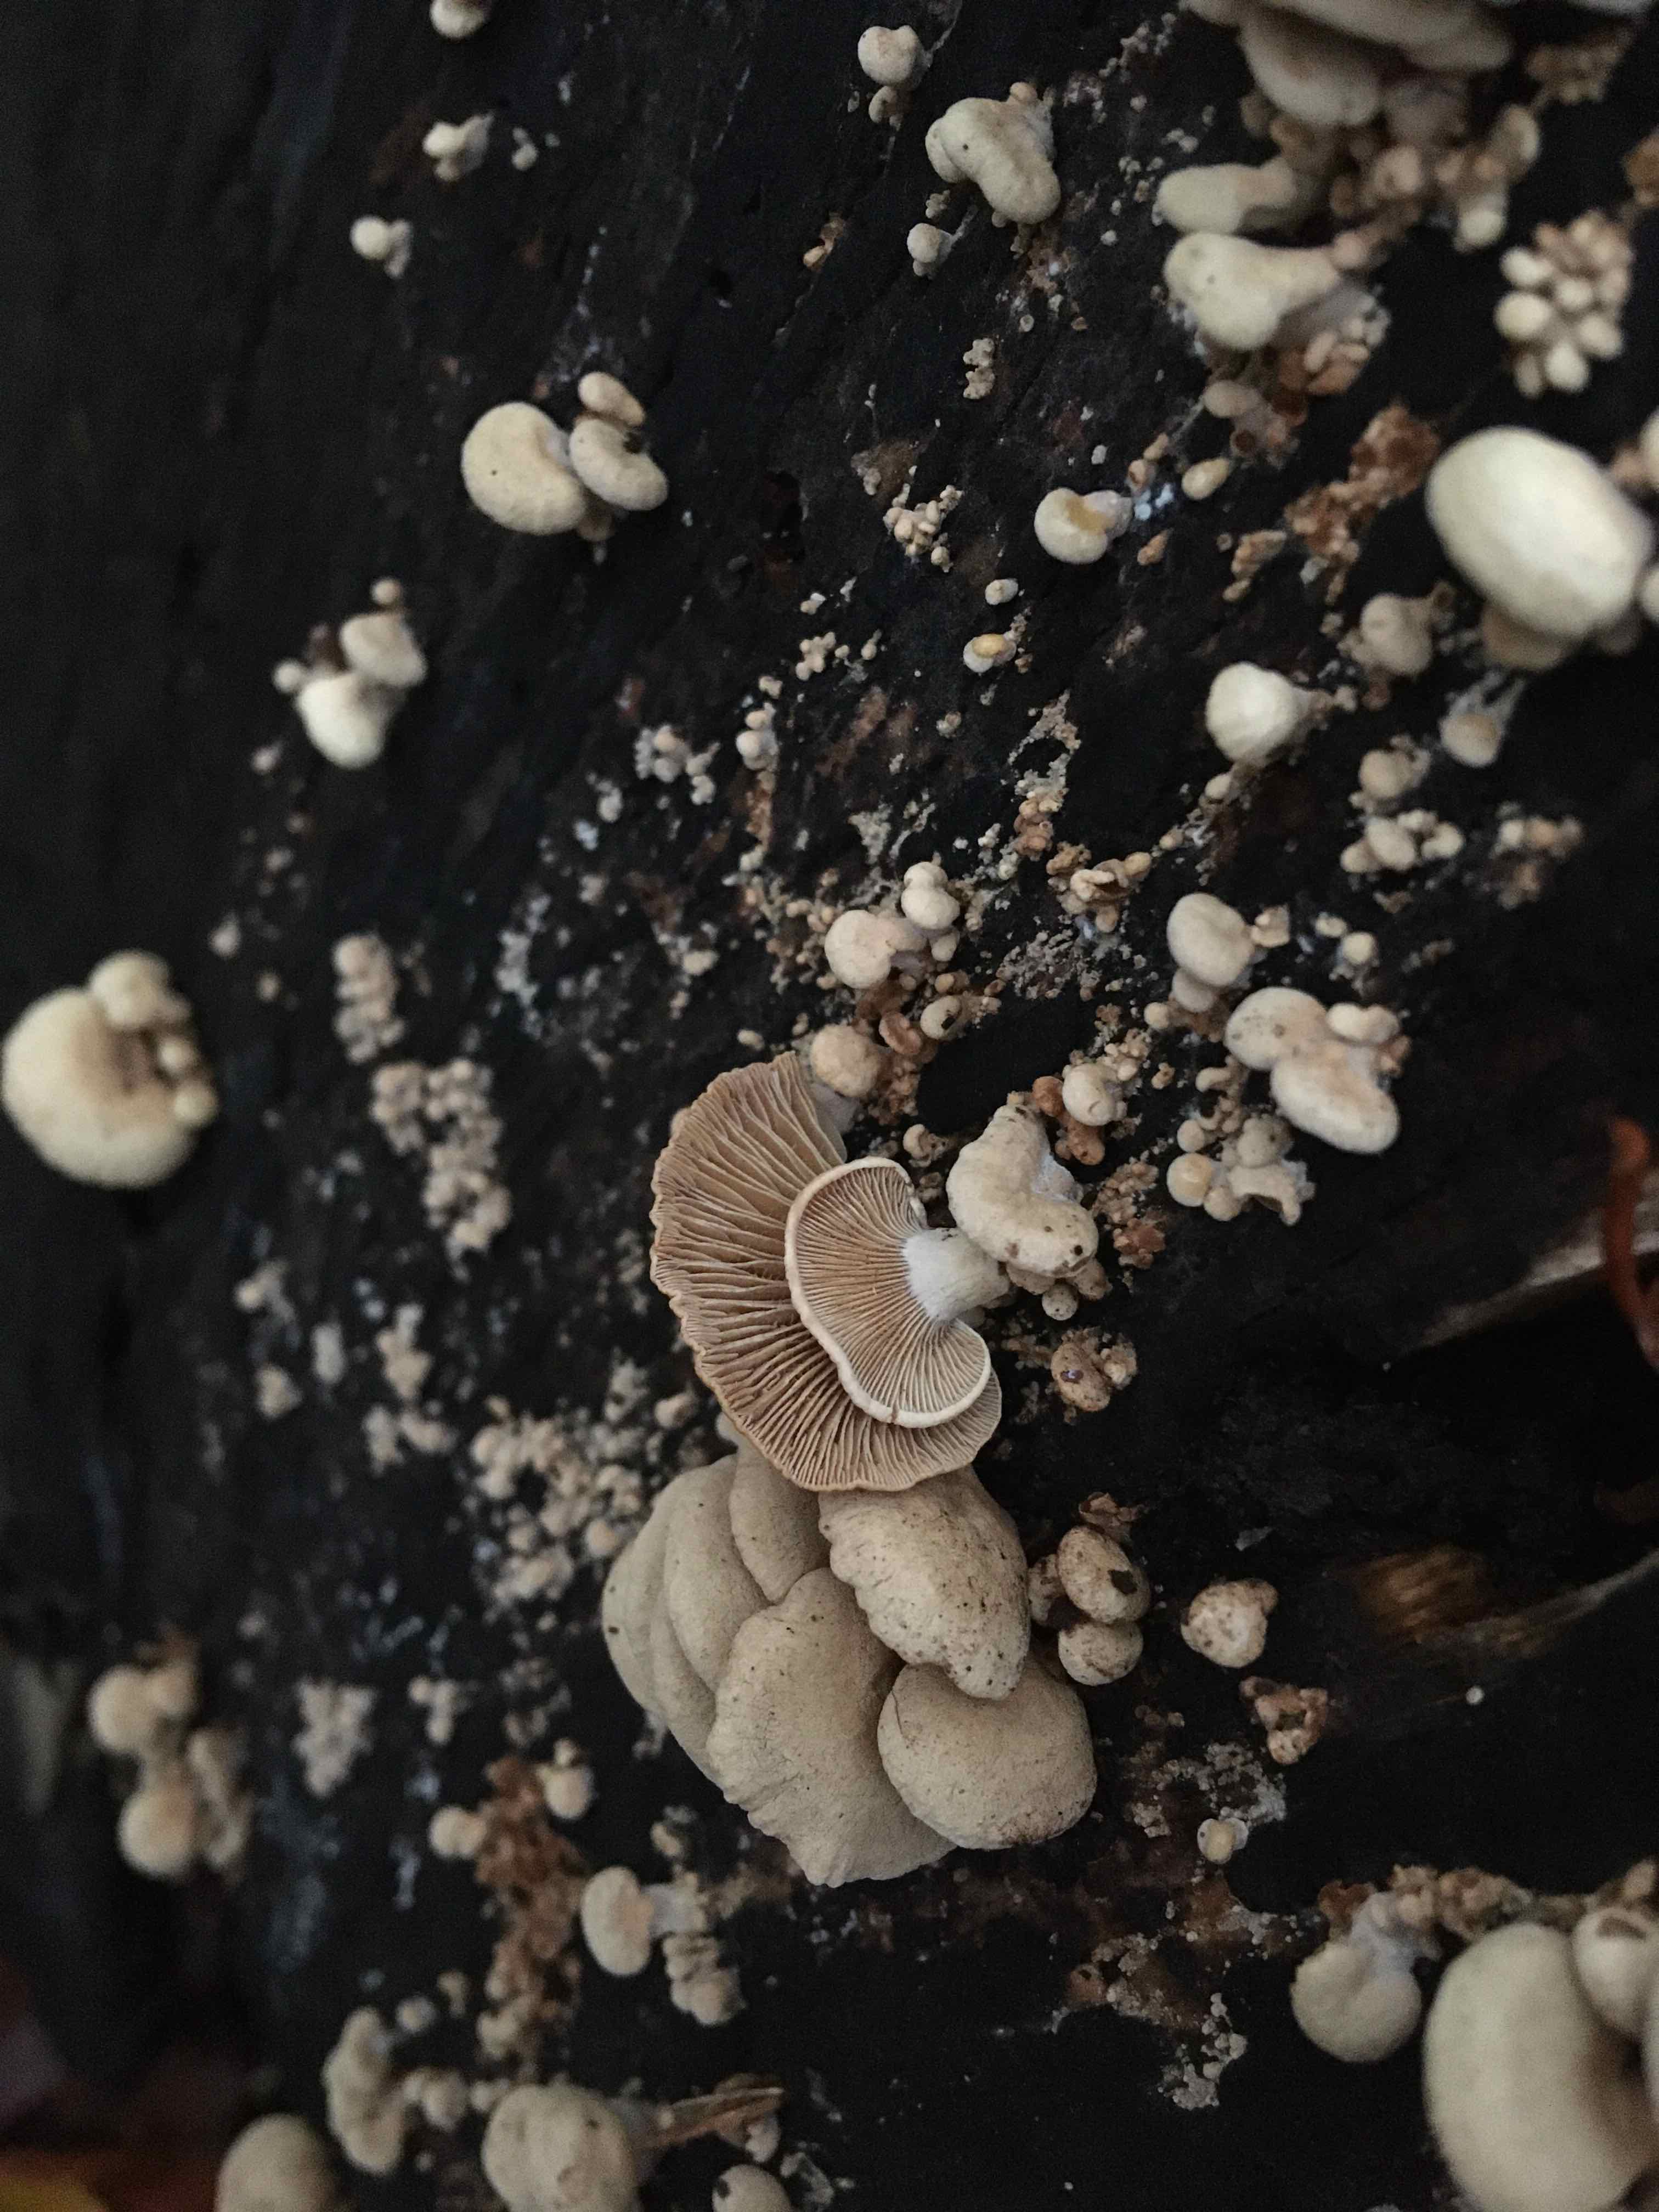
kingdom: Fungi
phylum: Basidiomycota
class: Agaricomycetes
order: Agaricales
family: Mycenaceae
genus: Panellus
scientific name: Panellus stipticus
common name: kliddet epaulethat
